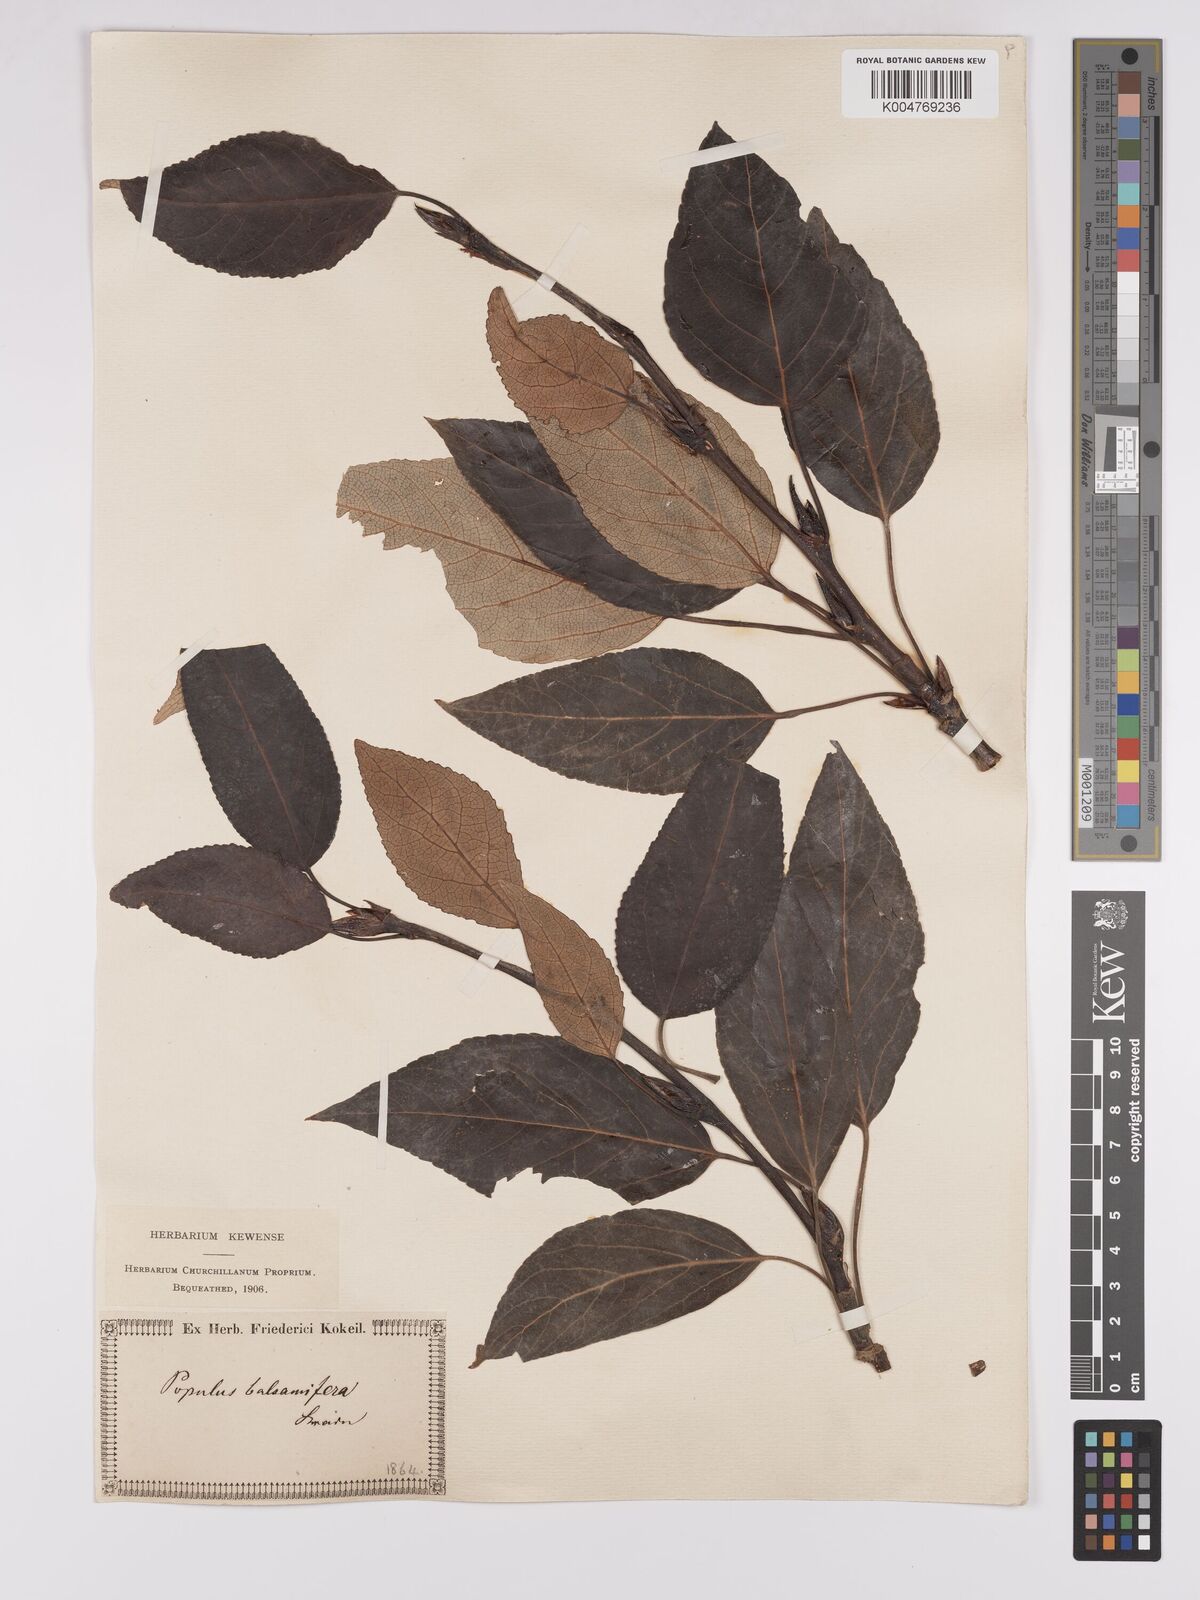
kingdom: Plantae
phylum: Tracheophyta
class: Magnoliopsida
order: Malpighiales
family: Salicaceae
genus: Populus
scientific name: Populus balsamifera
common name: Balsam poplar
